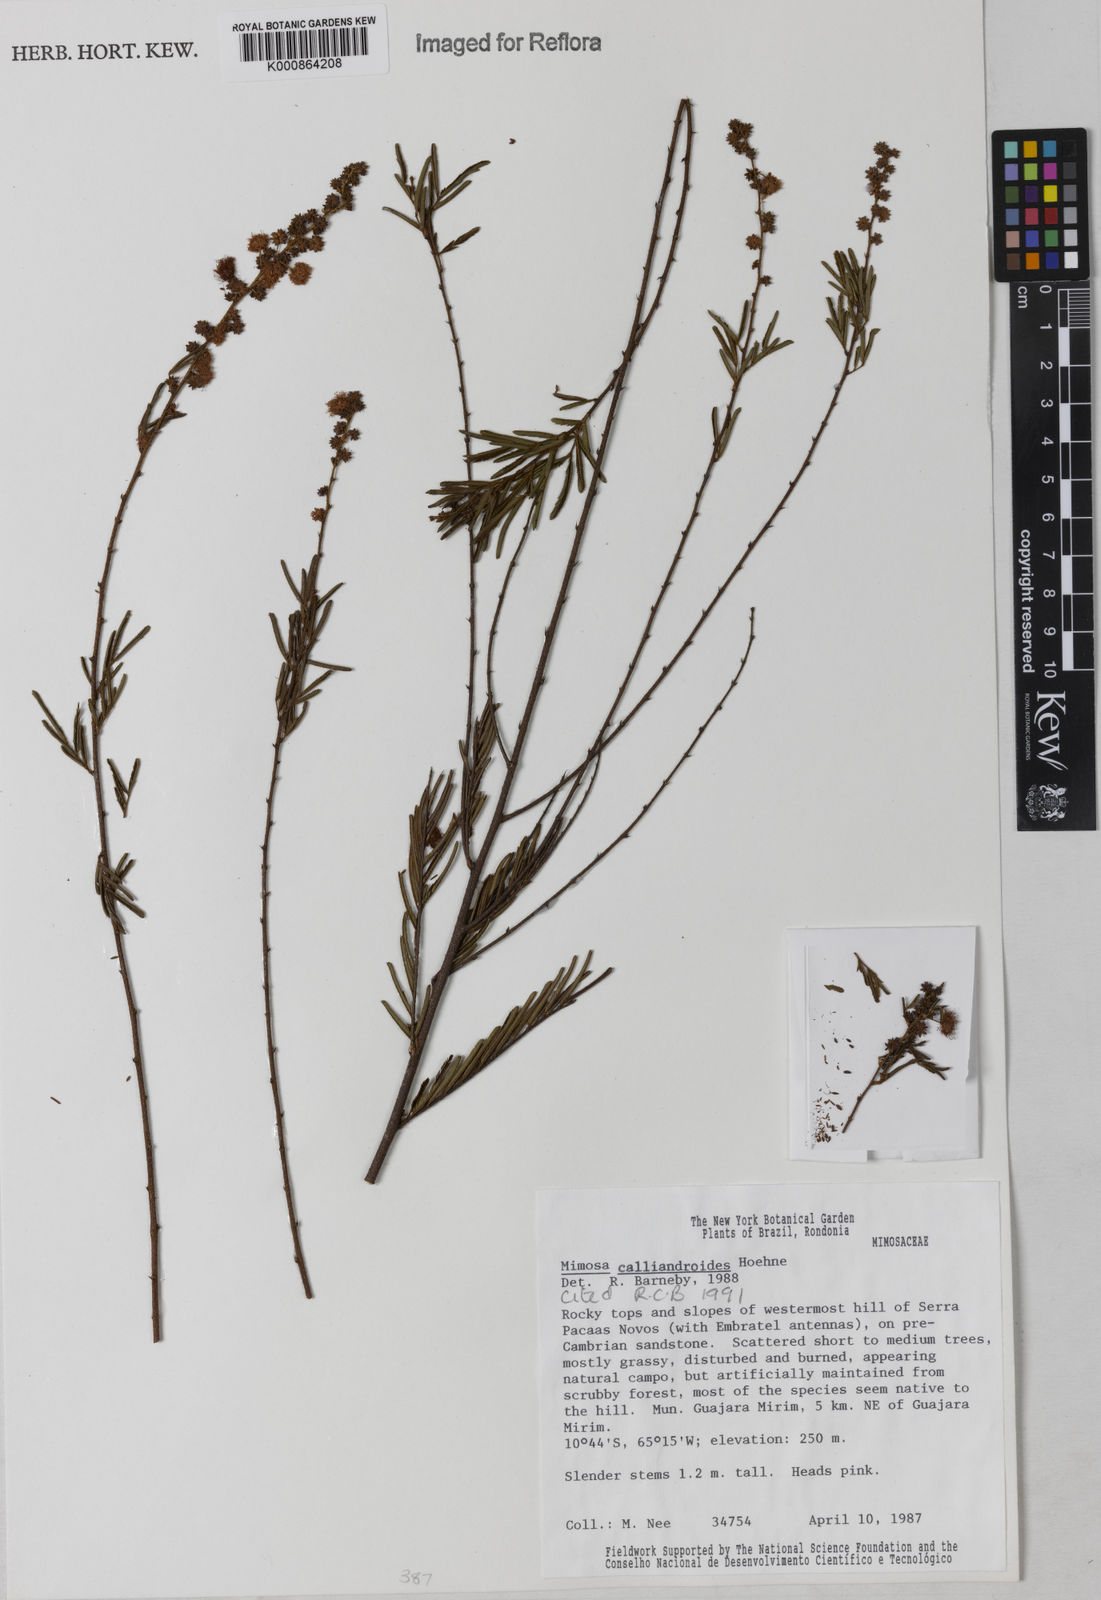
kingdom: Plantae
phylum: Tracheophyta
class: Magnoliopsida
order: Fabales
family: Fabaceae
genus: Mimosa
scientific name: Mimosa calliandroides
